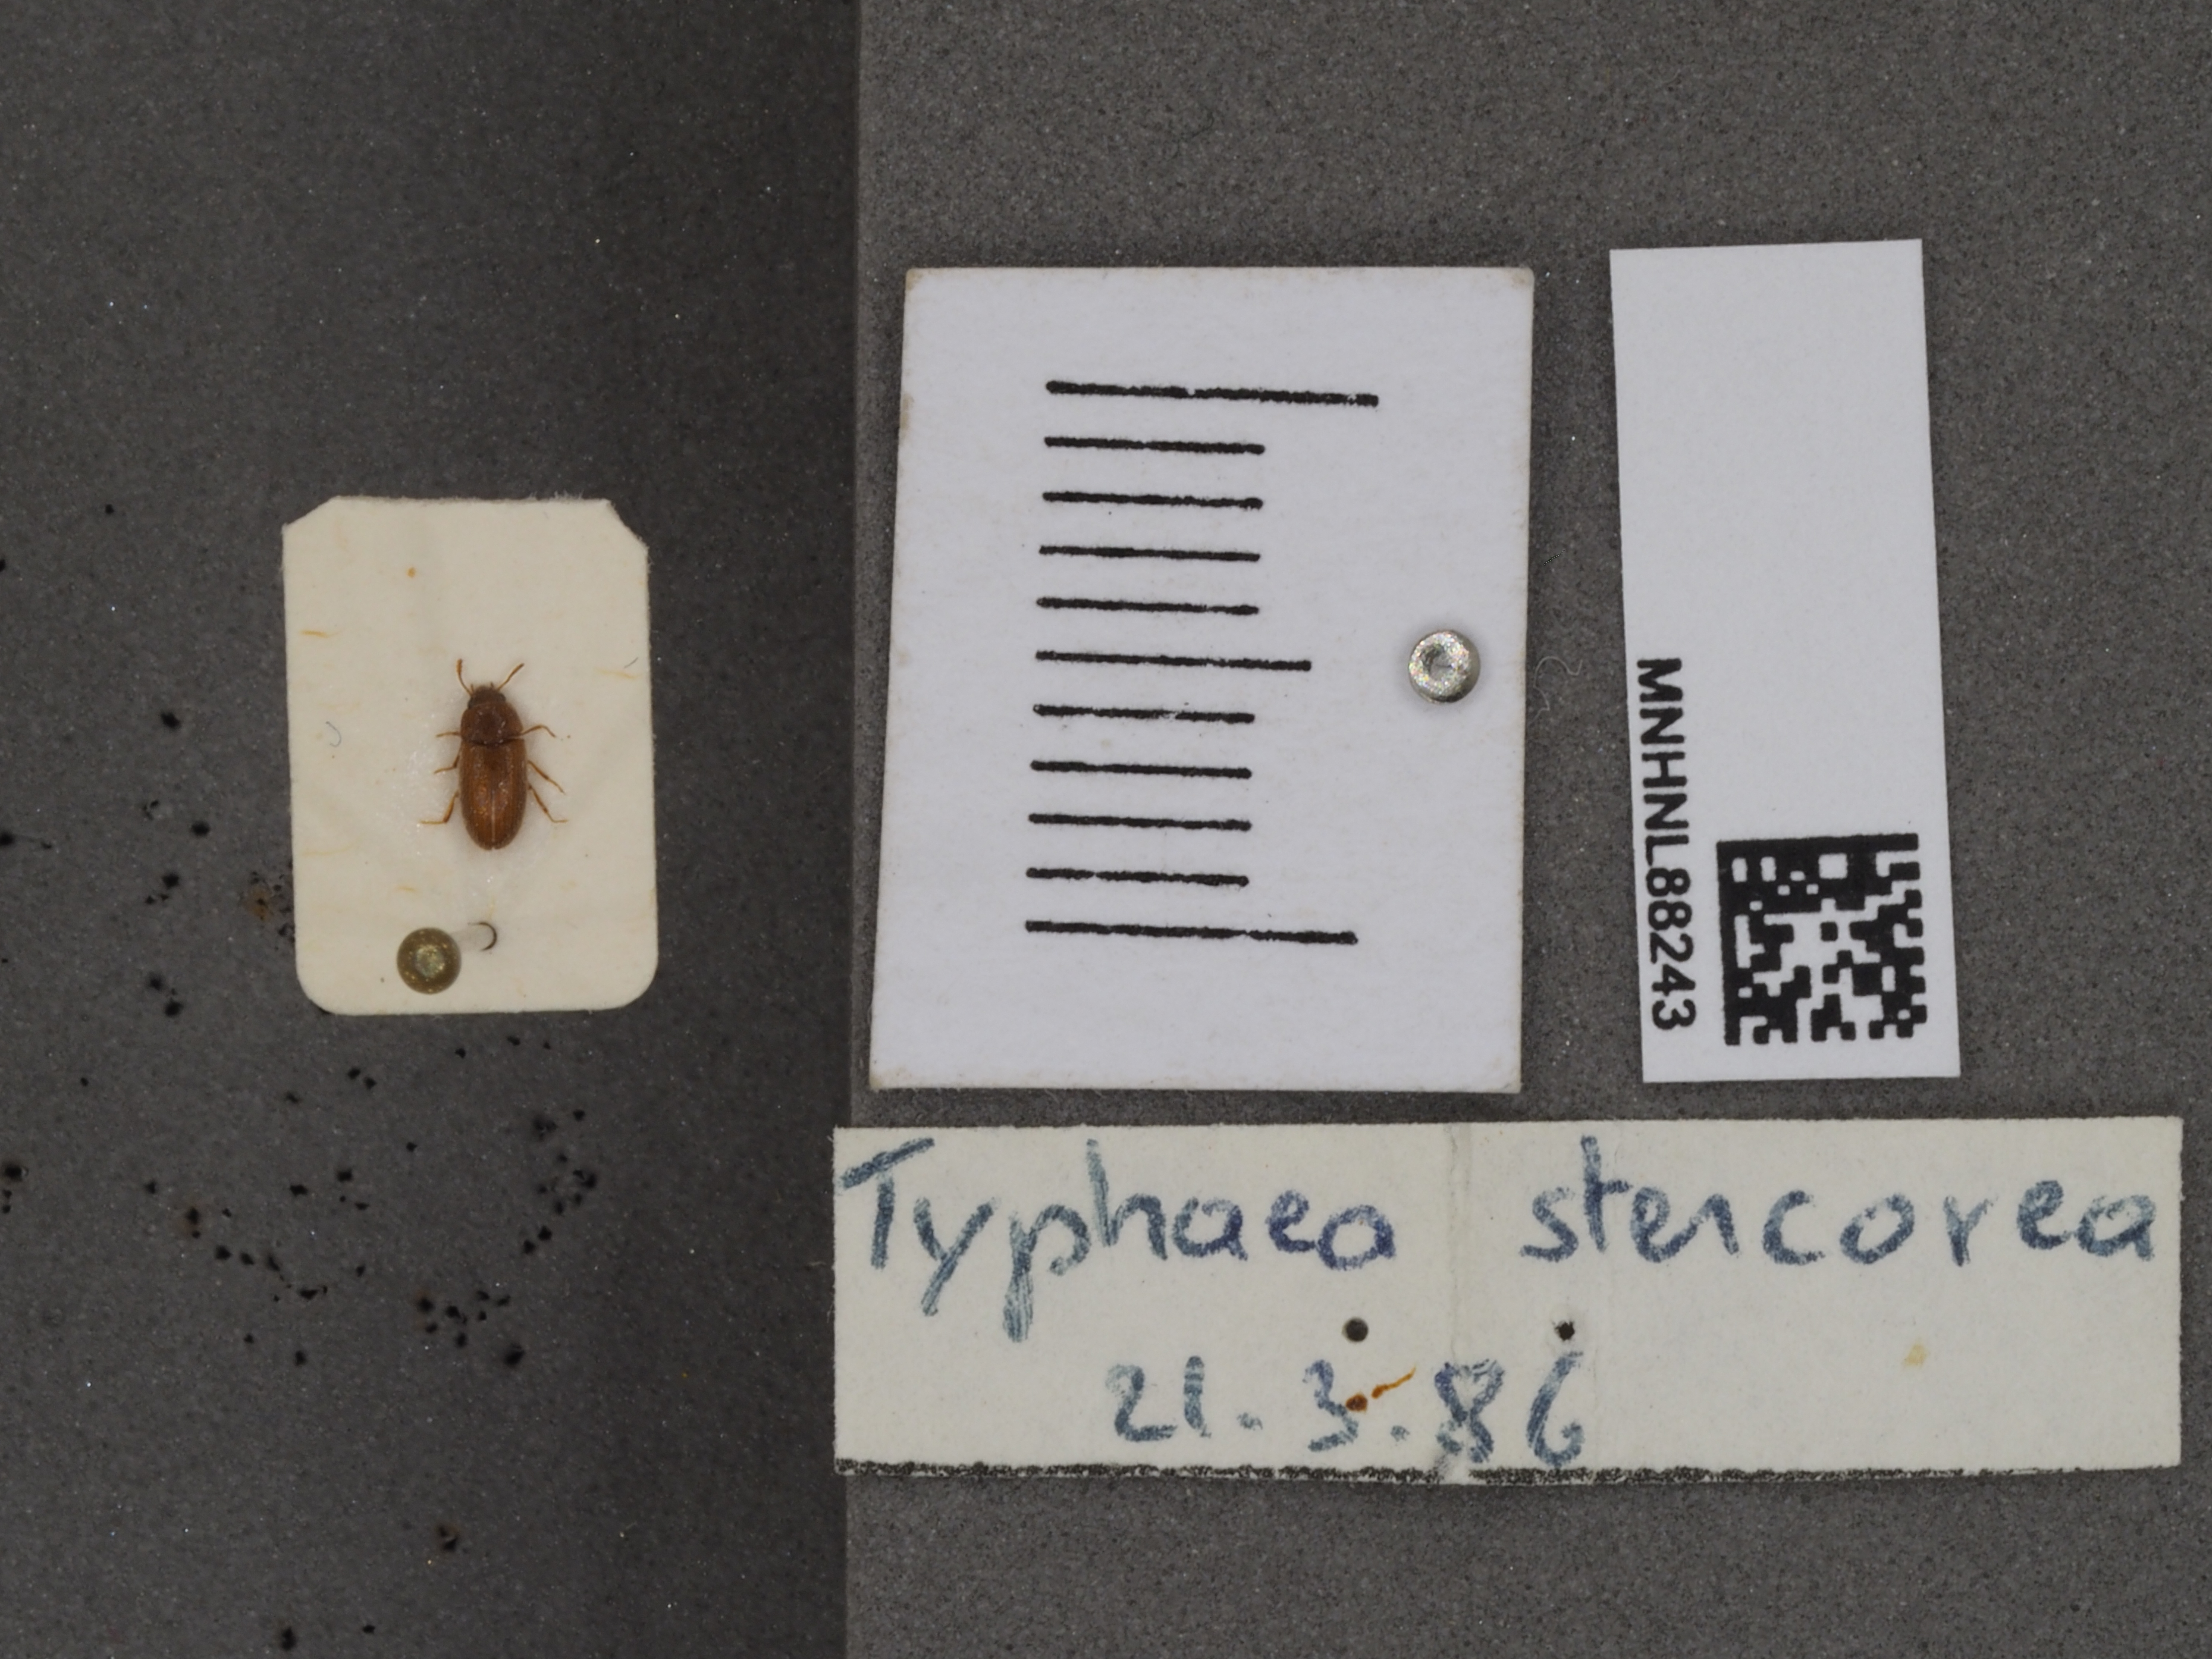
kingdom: Animalia
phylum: Arthropoda
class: Insecta
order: Coleoptera
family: Mycetophagidae
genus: Typhaea
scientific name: Typhaea stercorea
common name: Hairy fungus beetle
